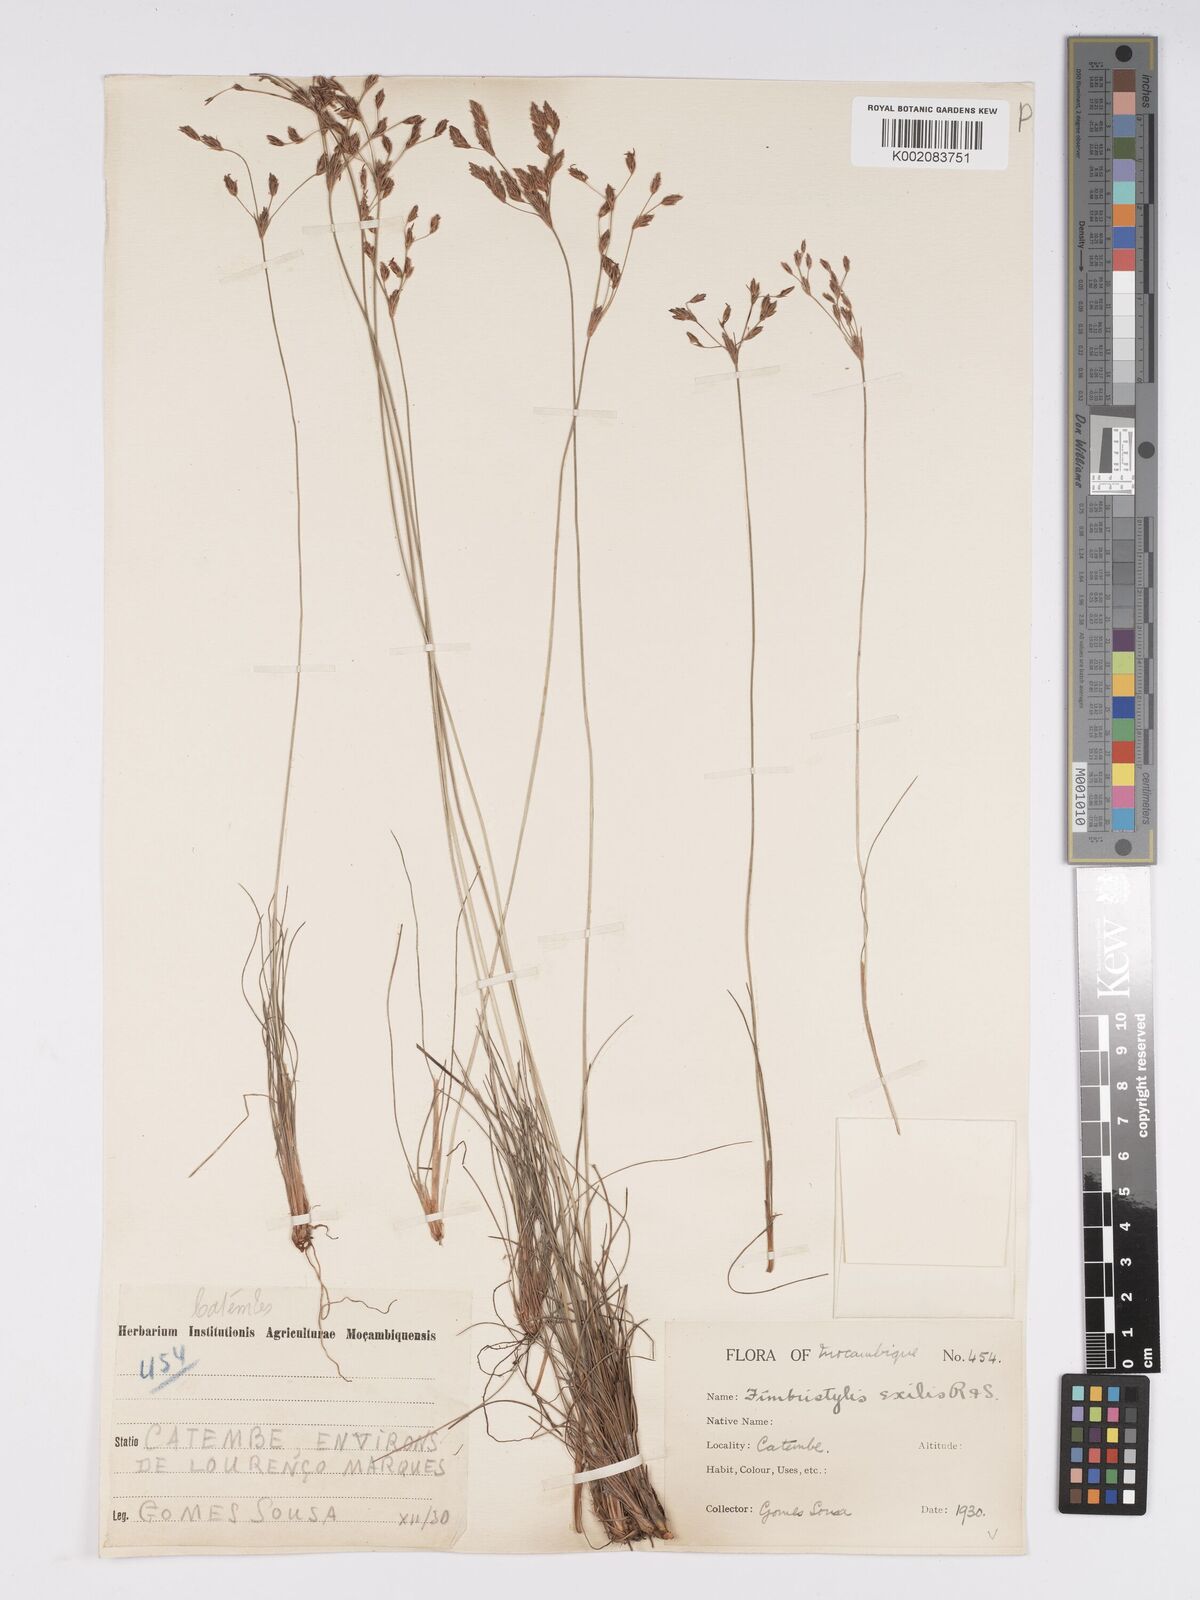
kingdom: Plantae
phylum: Tracheophyta
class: Liliopsida
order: Poales
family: Cyperaceae
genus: Bulbostylis
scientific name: Bulbostylis hispidula
